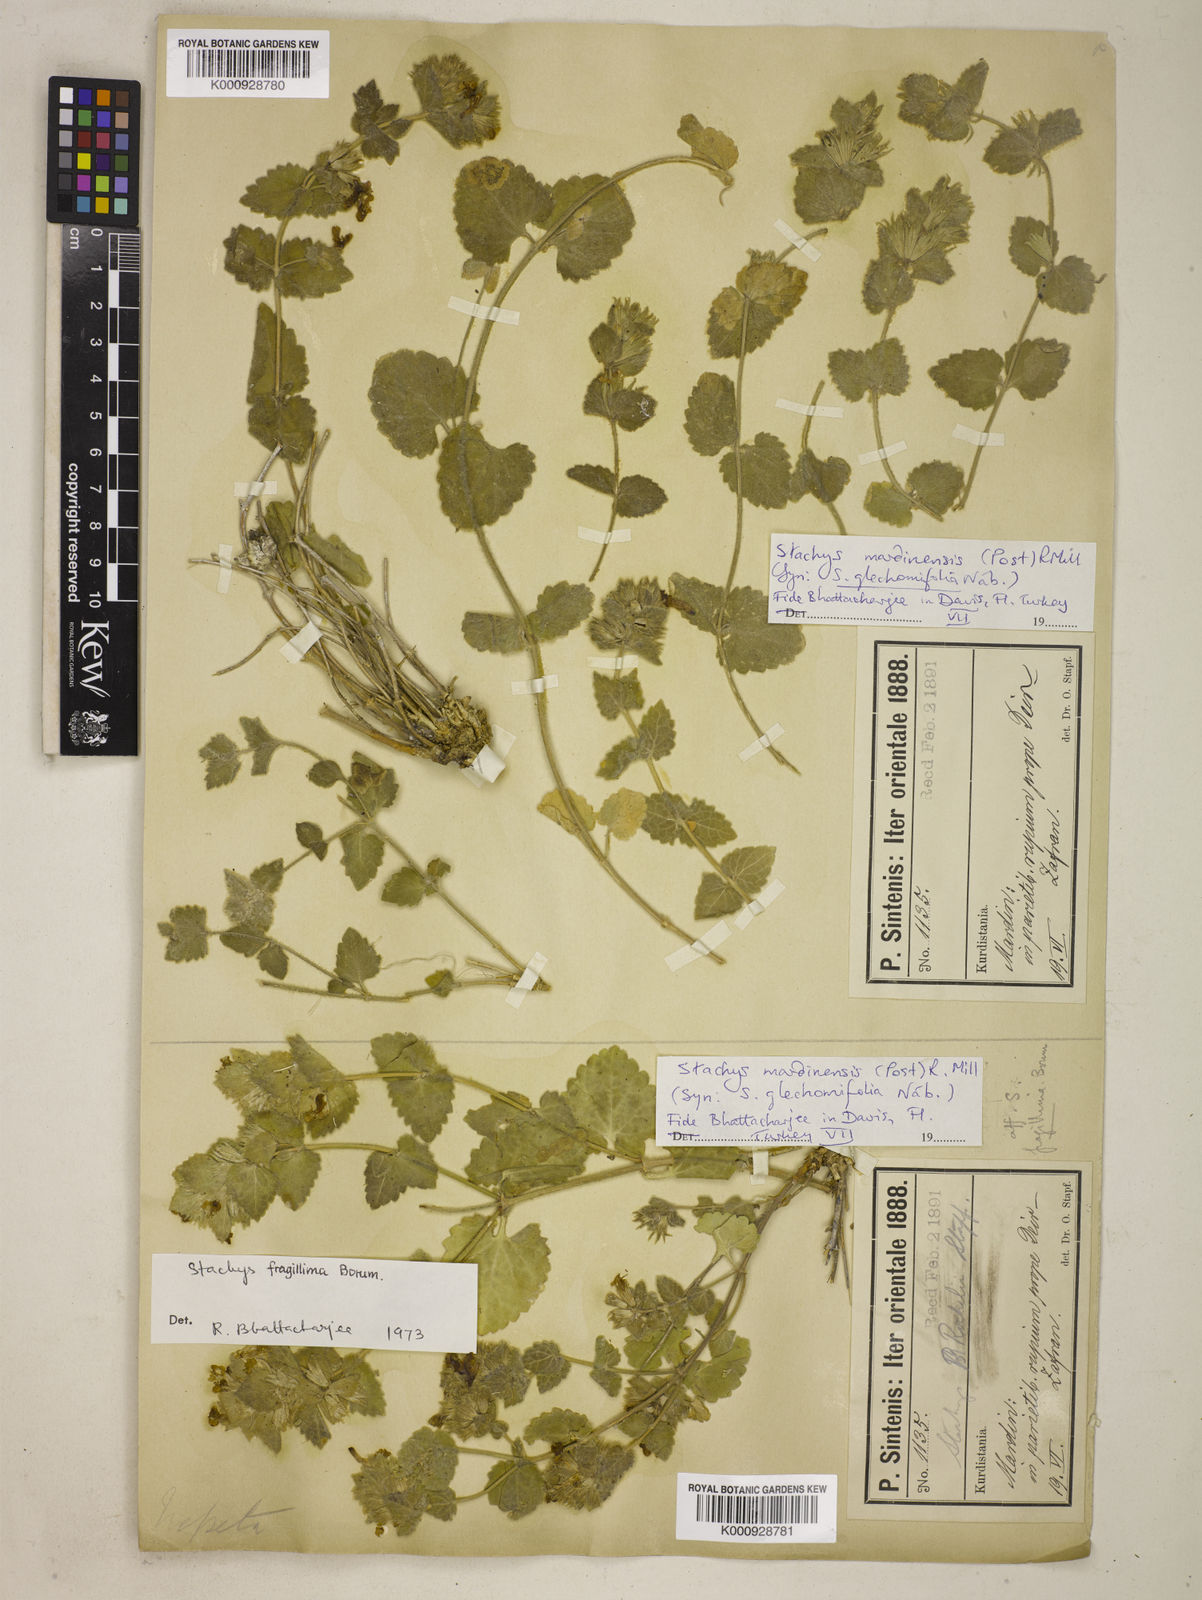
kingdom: Plantae
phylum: Tracheophyta
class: Magnoliopsida
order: Lamiales
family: Lamiaceae
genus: Stachys
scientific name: Stachys mardinensis
